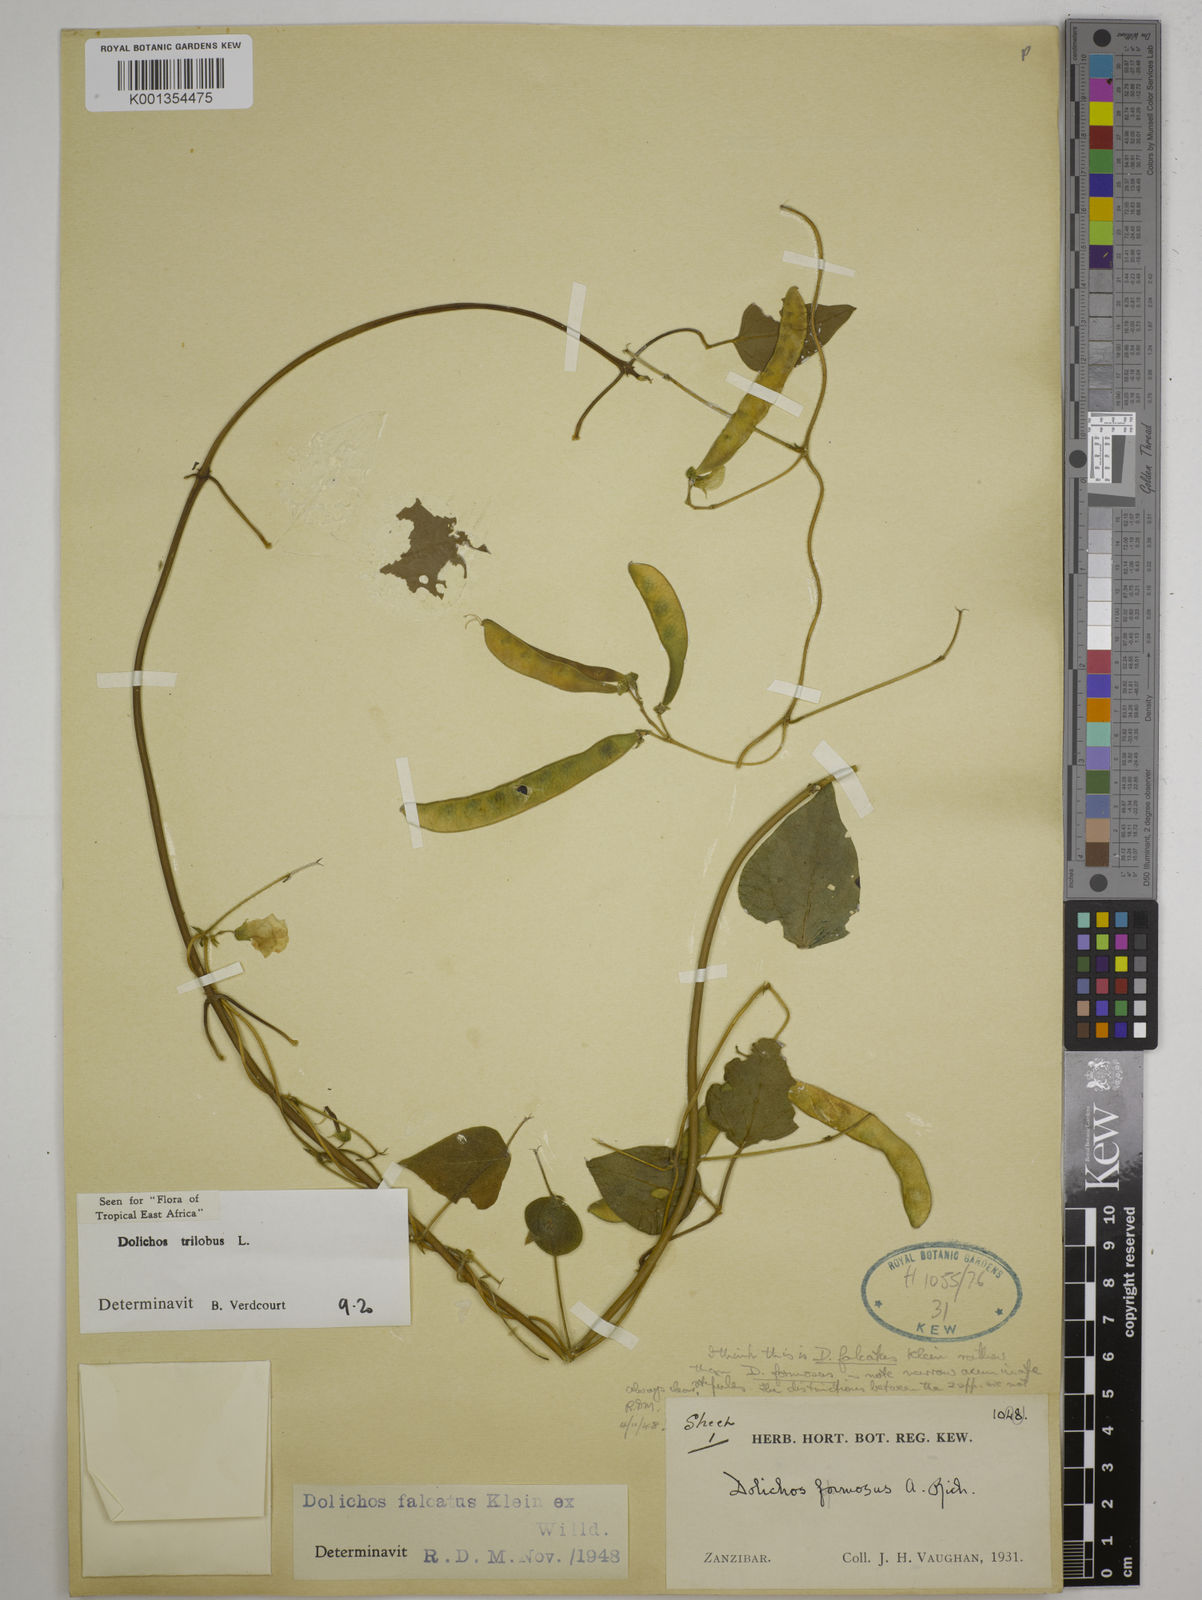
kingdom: Plantae
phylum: Tracheophyta
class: Magnoliopsida
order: Fabales
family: Fabaceae
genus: Dolichos
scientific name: Dolichos
